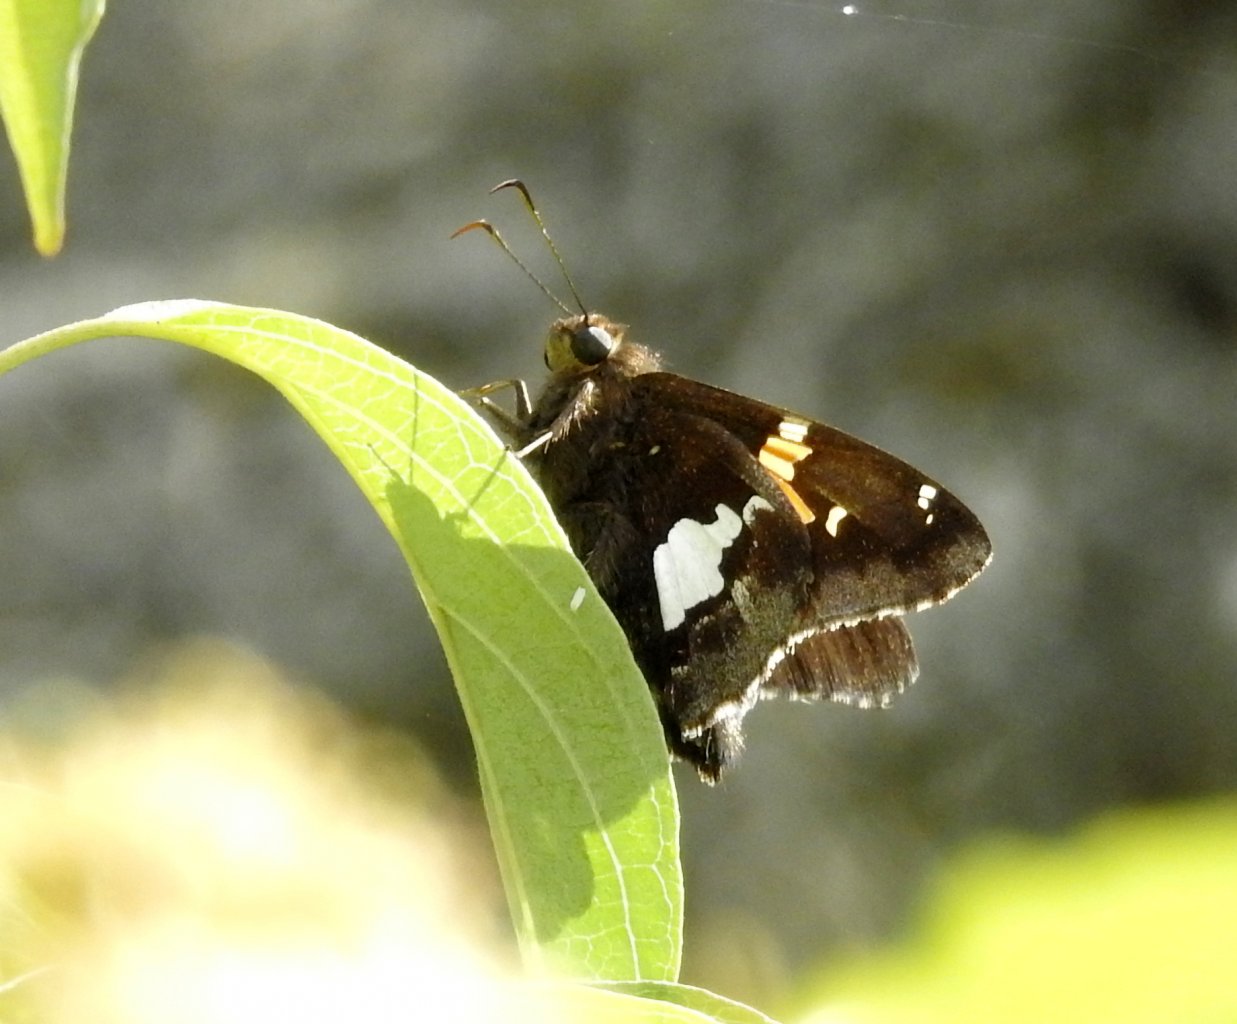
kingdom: Animalia
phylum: Arthropoda
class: Insecta
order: Lepidoptera
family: Hesperiidae
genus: Epargyreus
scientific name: Epargyreus clarus
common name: Silver-spotted Skipper
